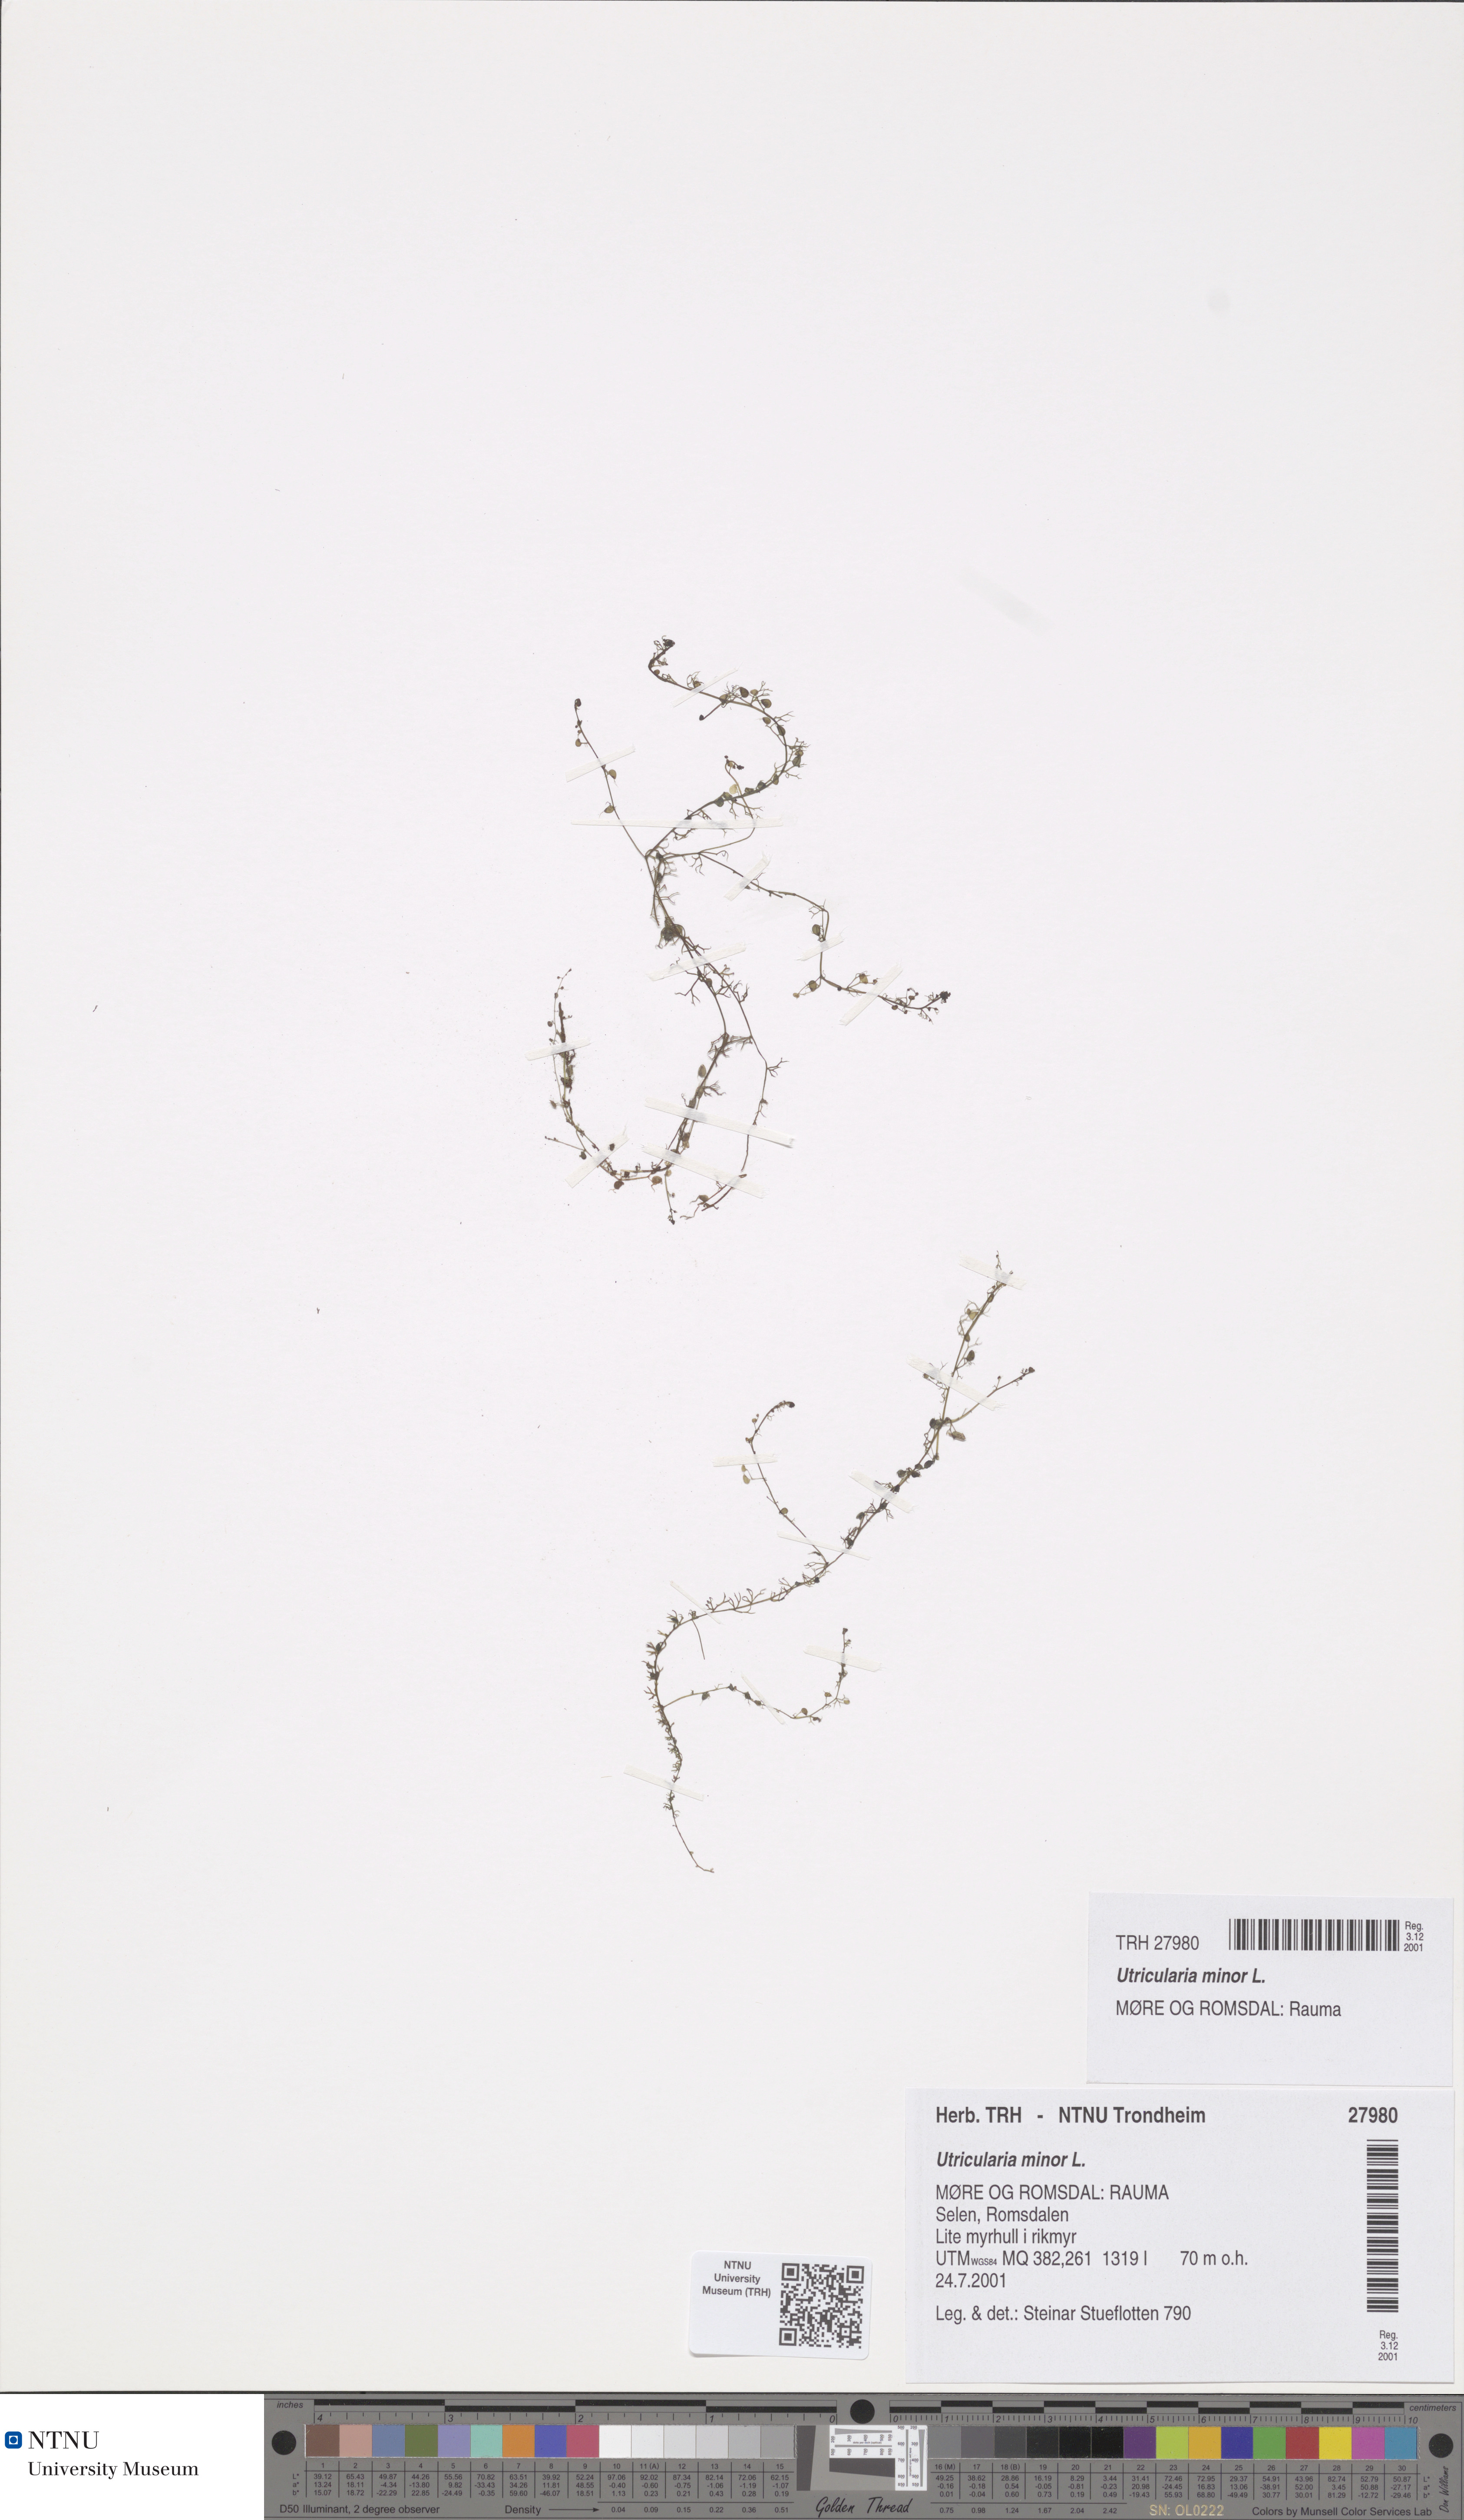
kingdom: Plantae
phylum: Tracheophyta
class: Magnoliopsida
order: Lamiales
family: Lentibulariaceae
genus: Utricularia
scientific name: Utricularia minor
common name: Lesser bladderwort
